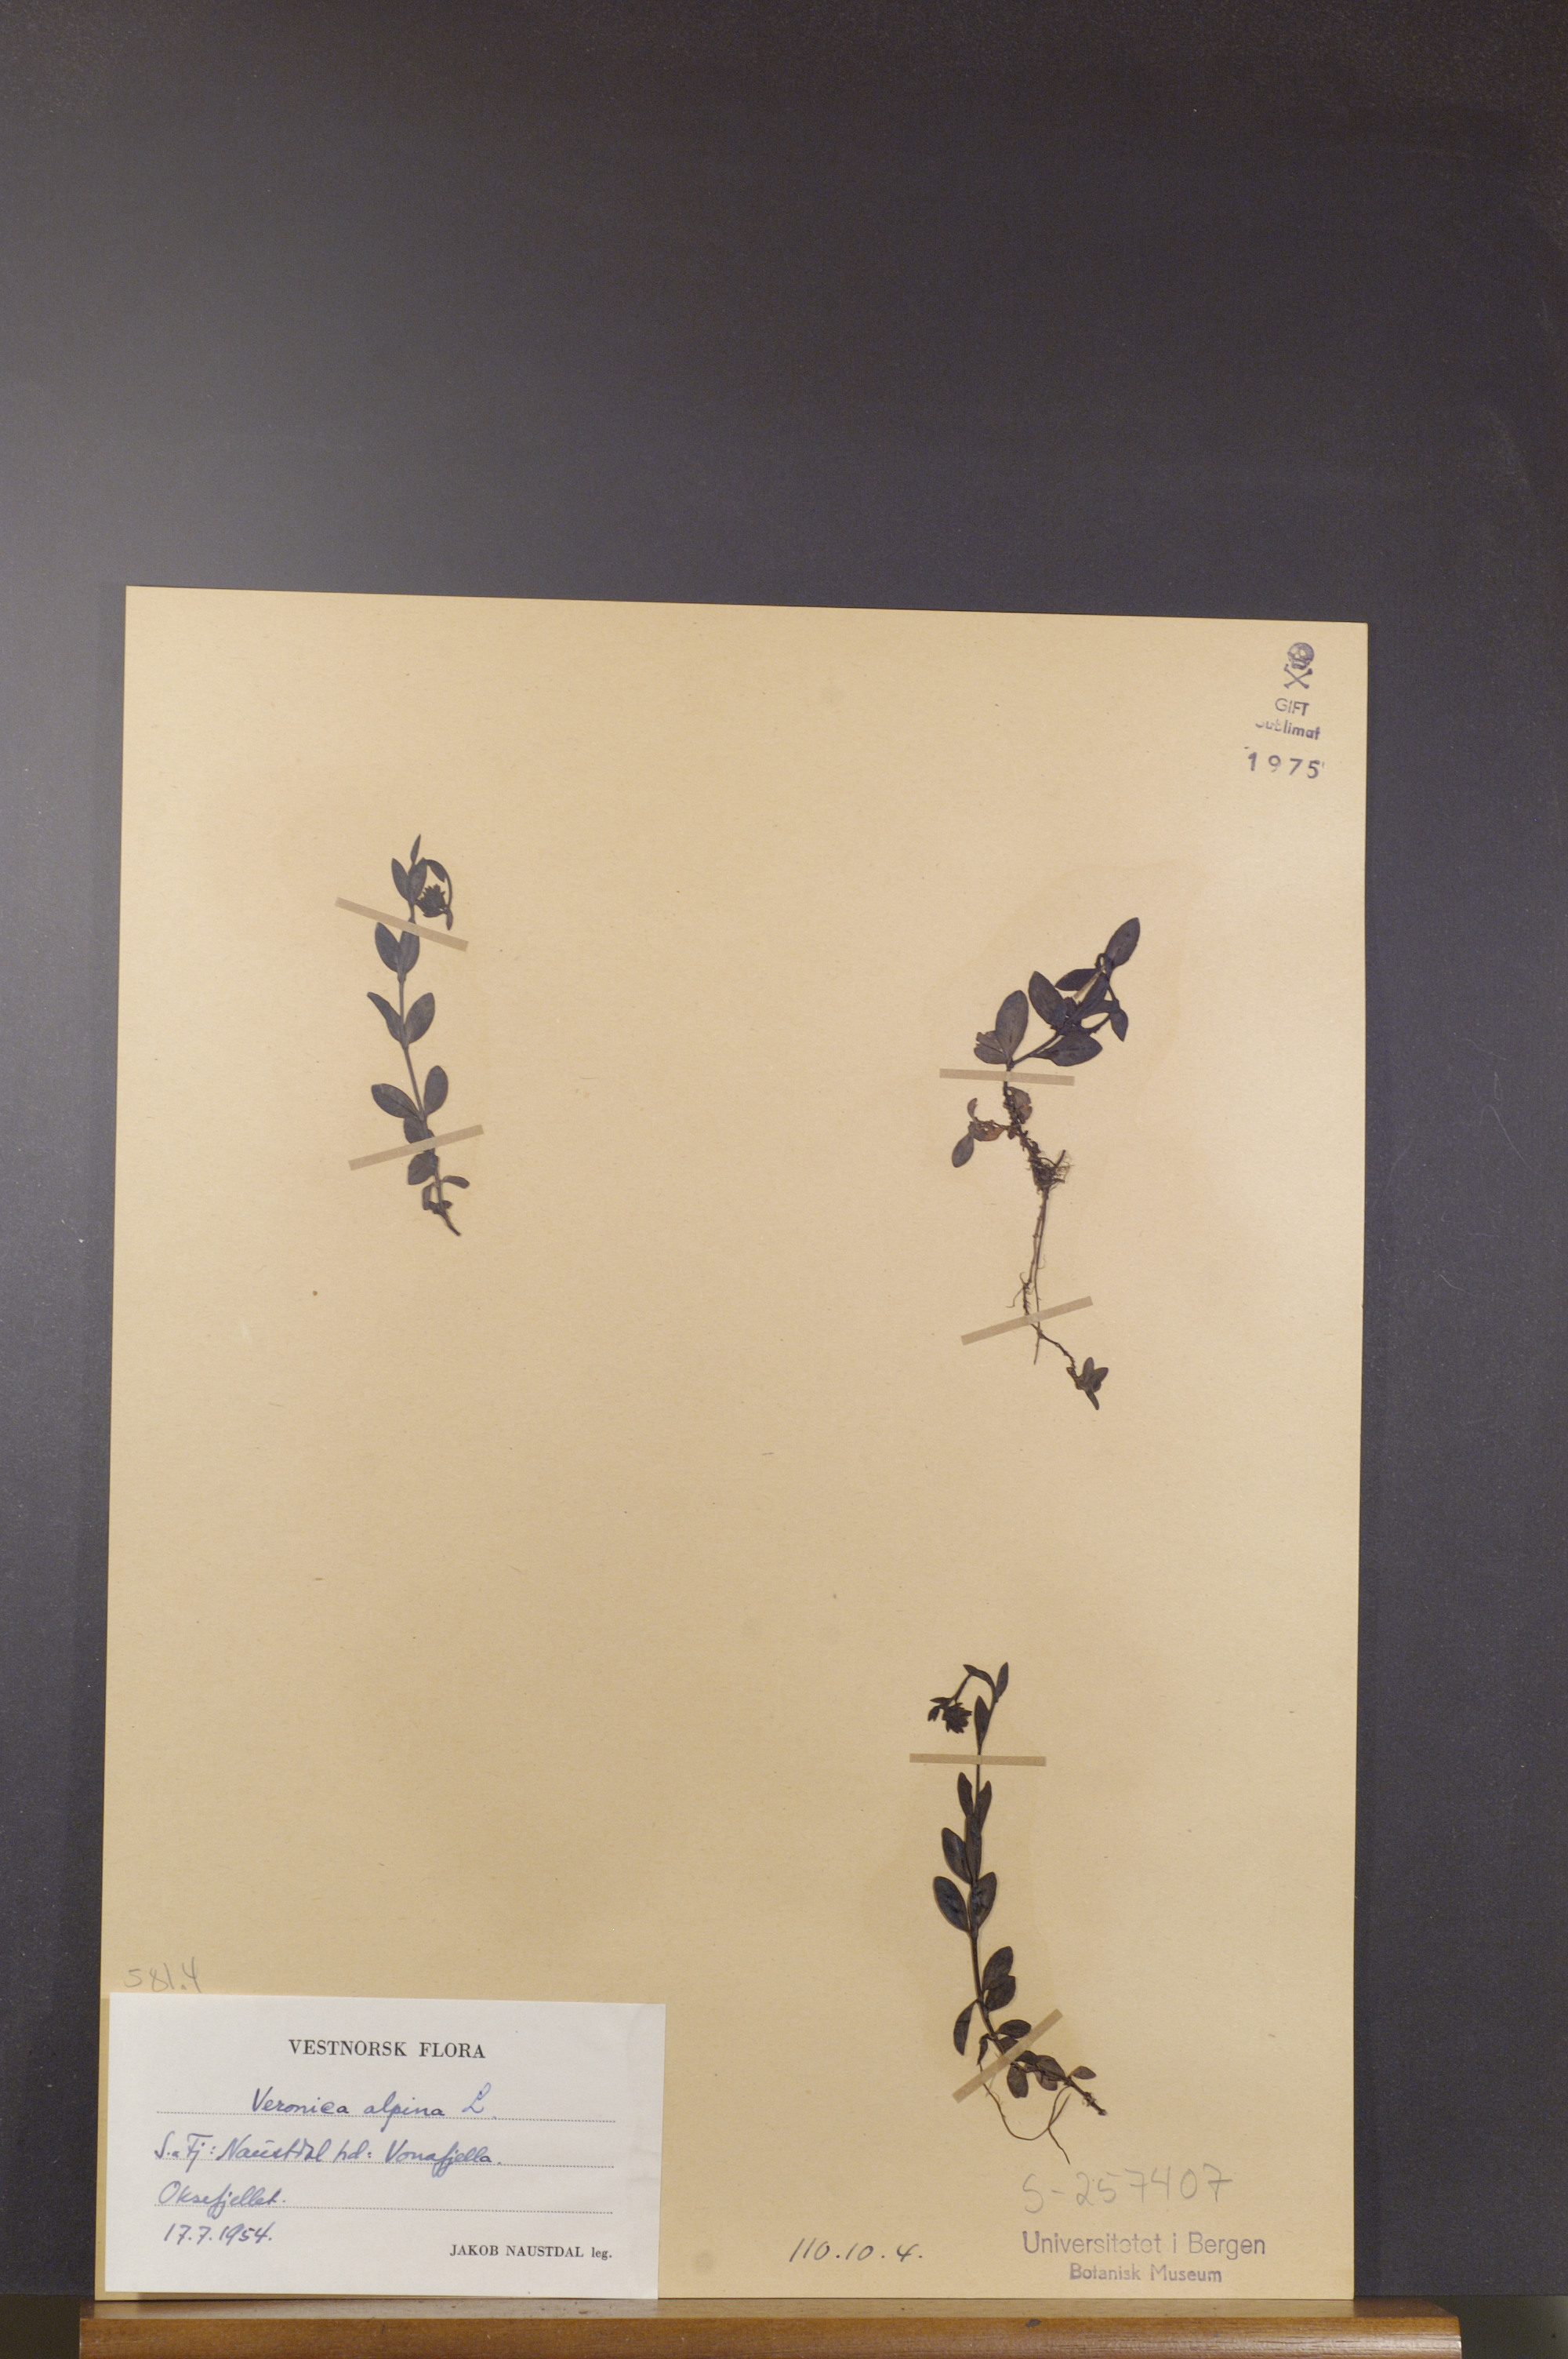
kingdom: Plantae
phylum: Tracheophyta
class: Magnoliopsida
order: Lamiales
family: Plantaginaceae
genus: Veronica
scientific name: Veronica alpina
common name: Alpine speedwell
